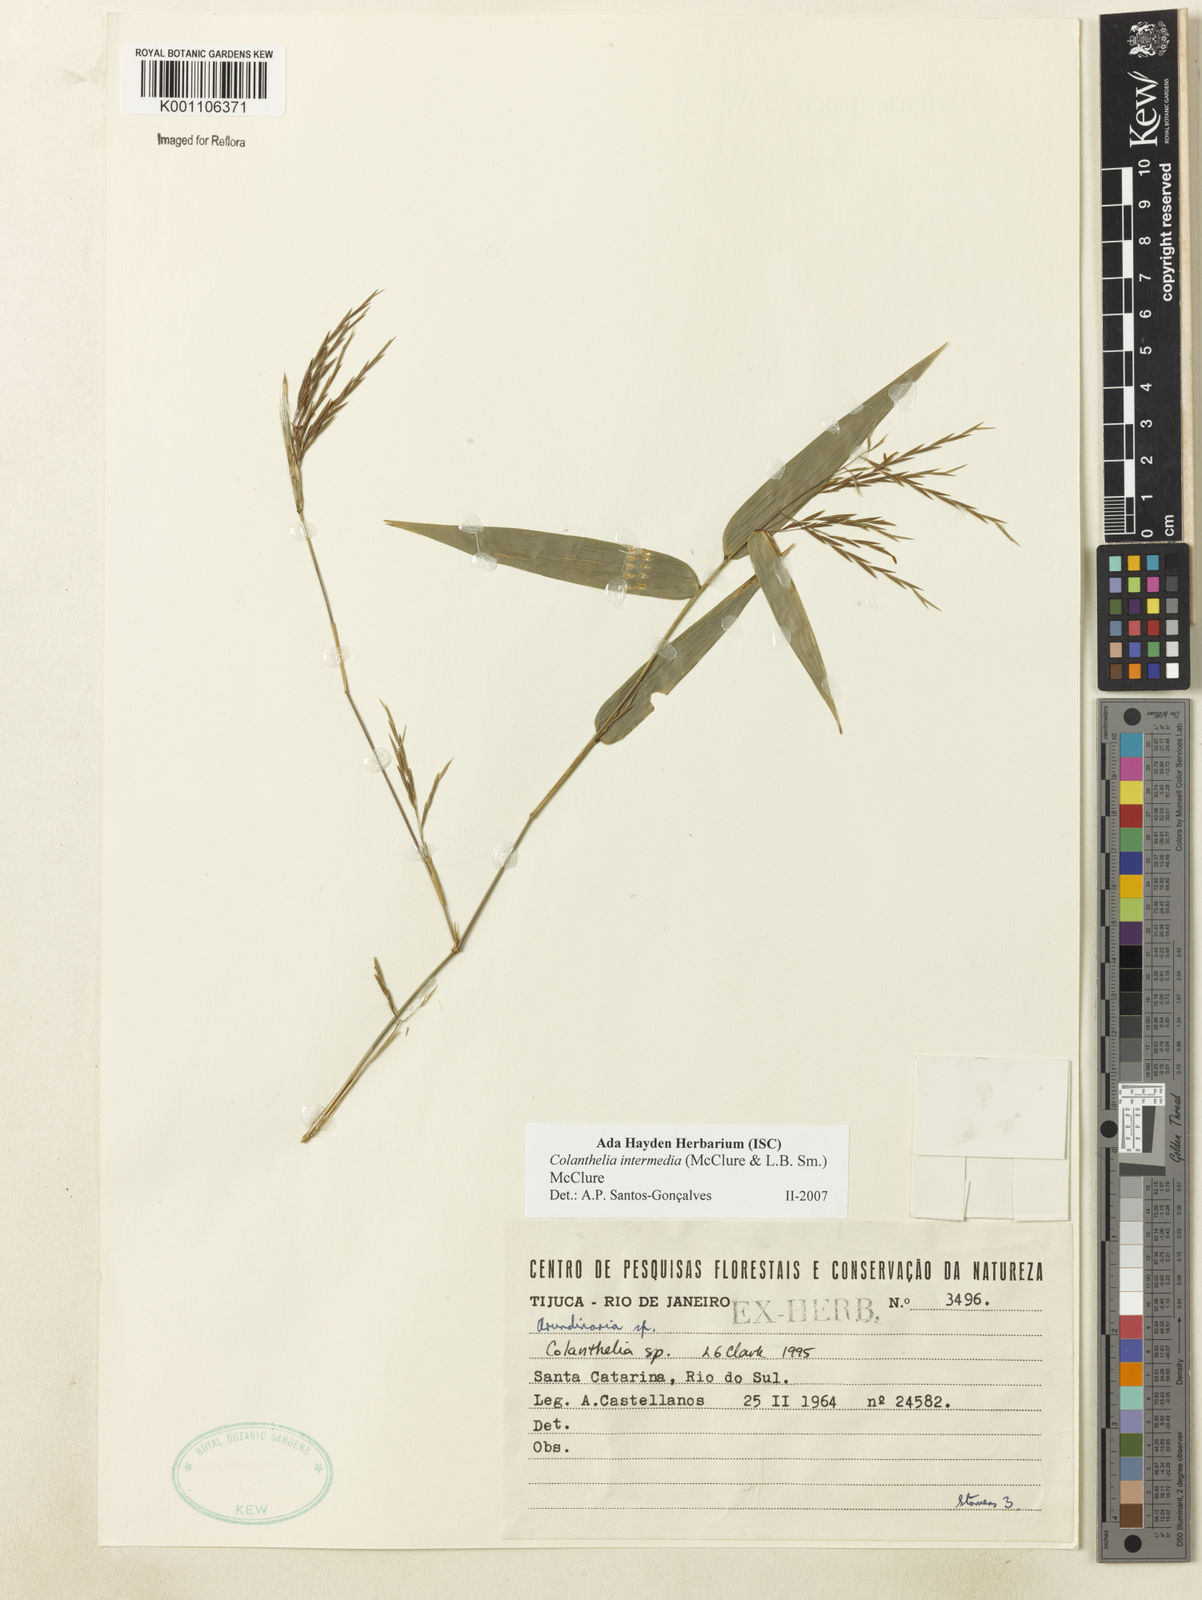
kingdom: Plantae
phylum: Tracheophyta
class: Liliopsida
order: Poales
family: Poaceae
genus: Colanthelia
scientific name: Colanthelia intermedia
